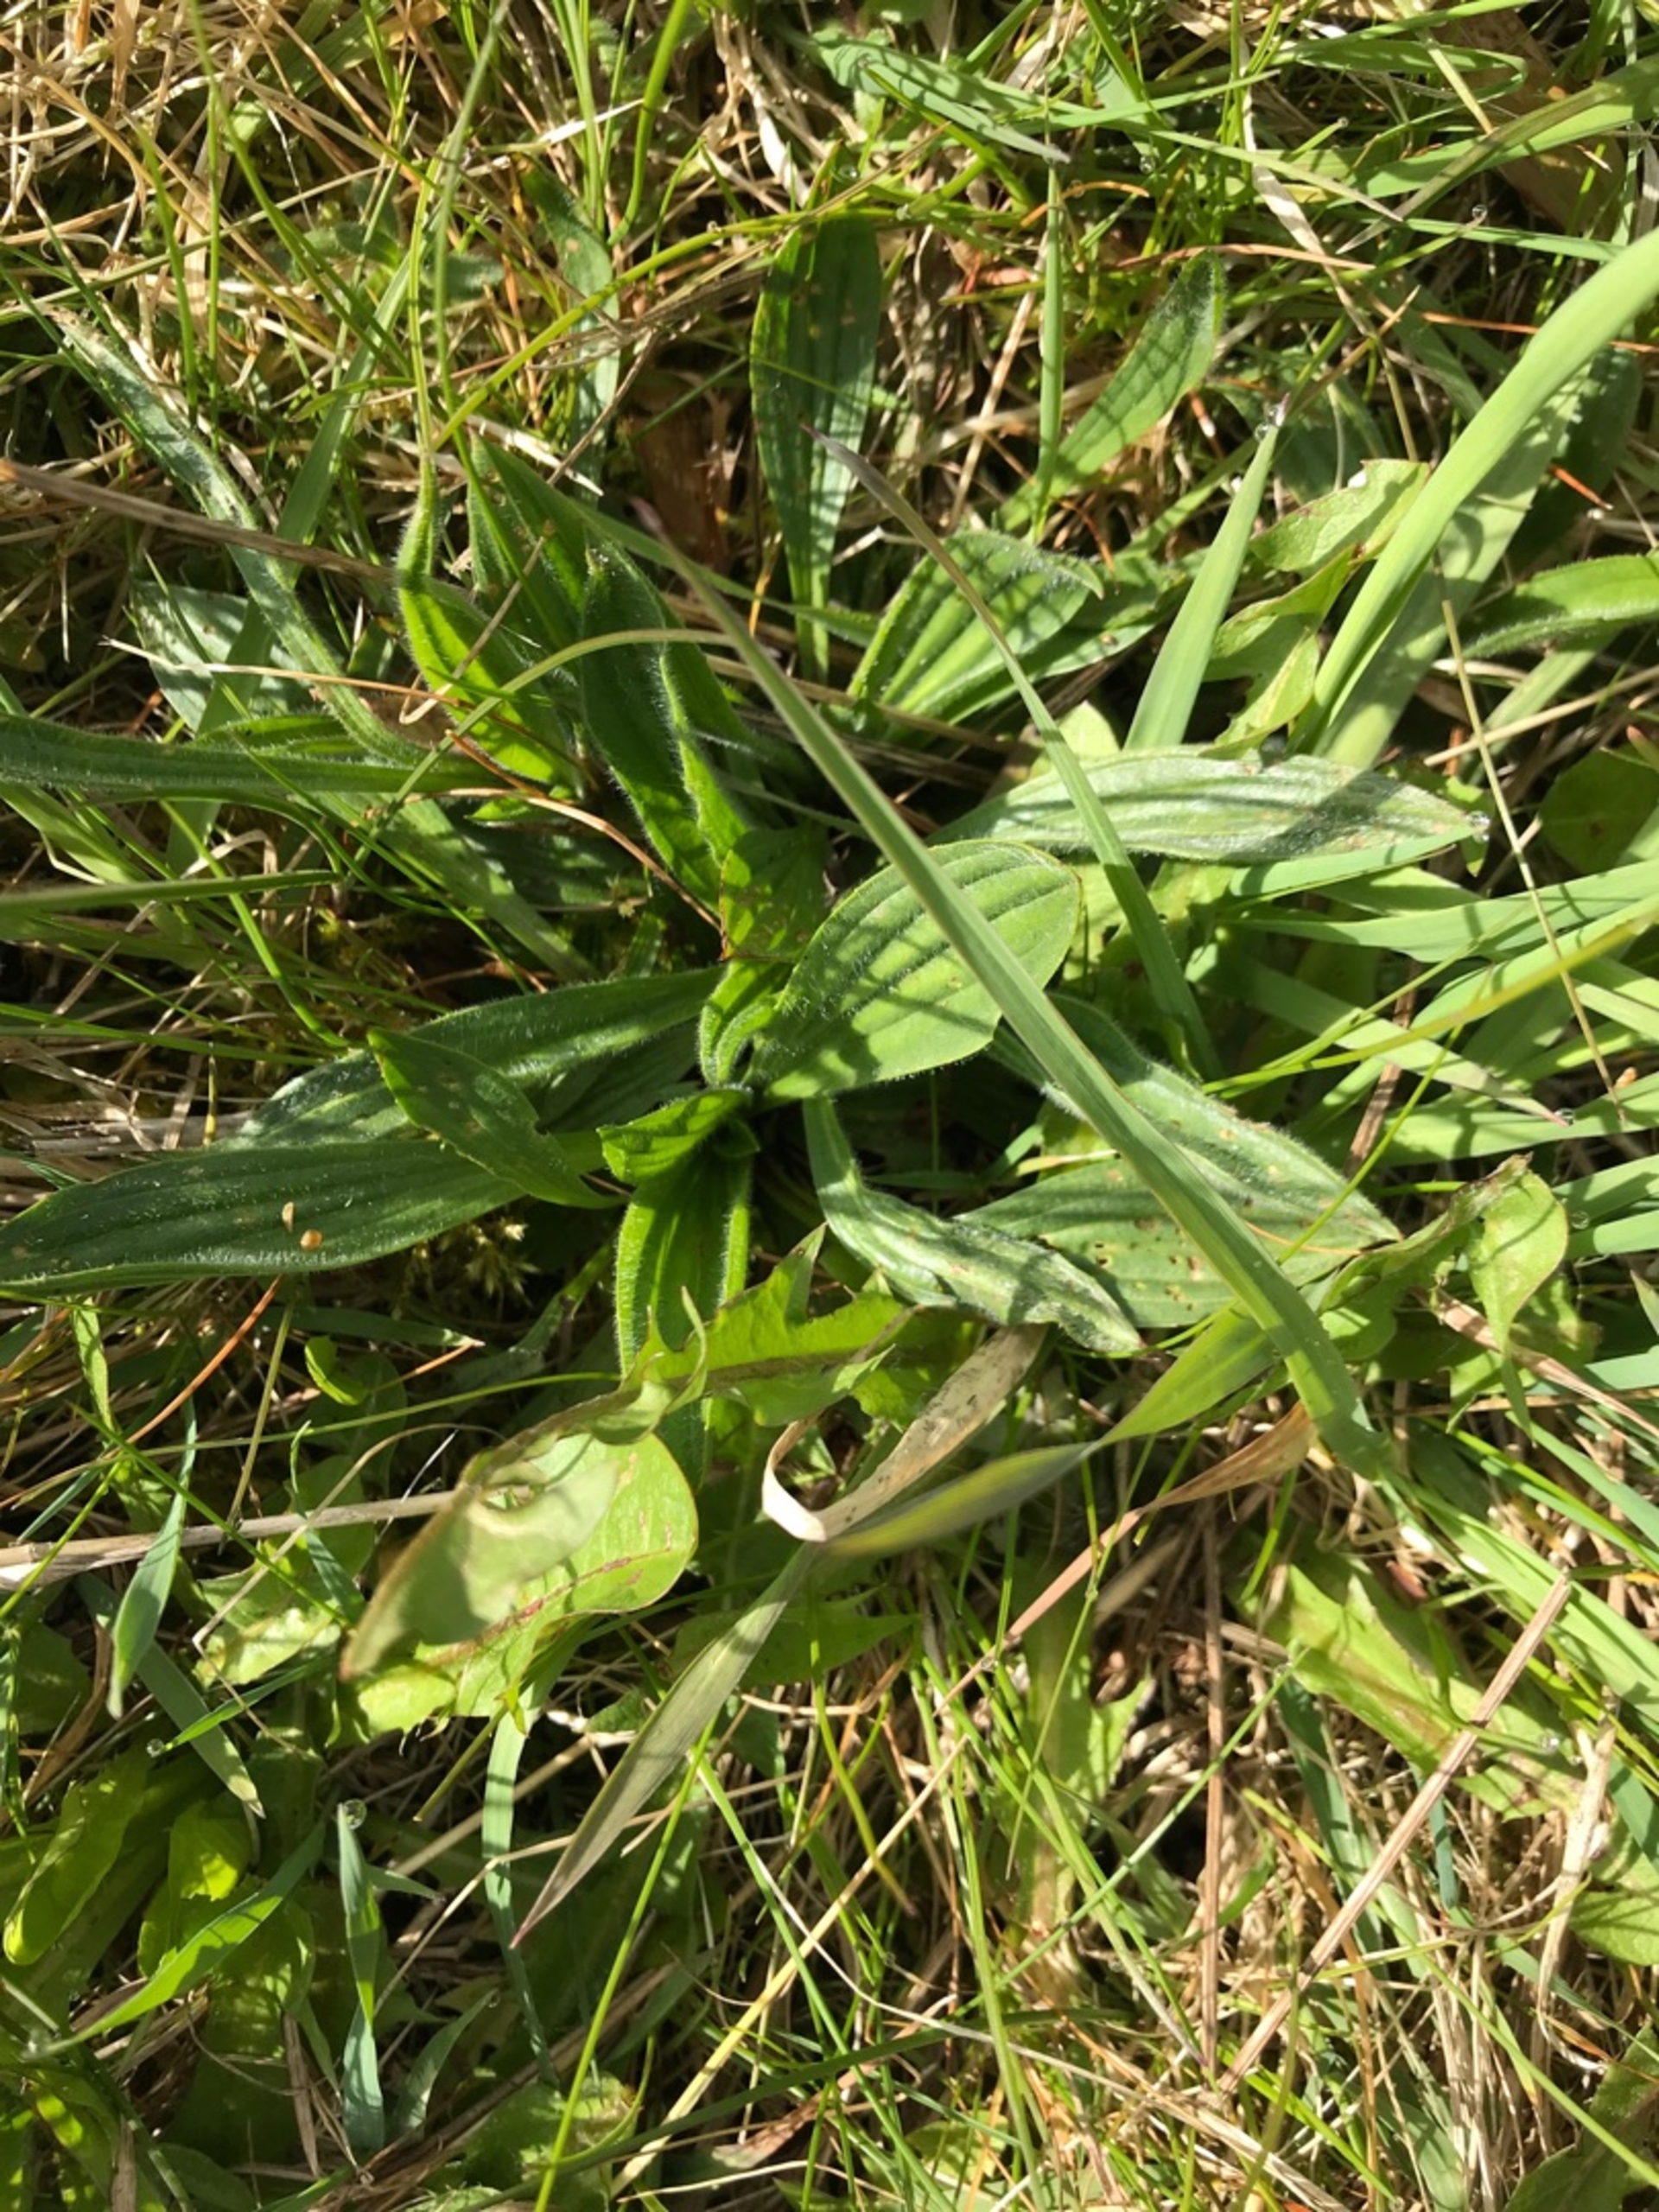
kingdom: Plantae
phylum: Tracheophyta
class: Magnoliopsida
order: Lamiales
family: Plantaginaceae
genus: Plantago
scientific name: Plantago lanceolata
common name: Lancet-vejbred
